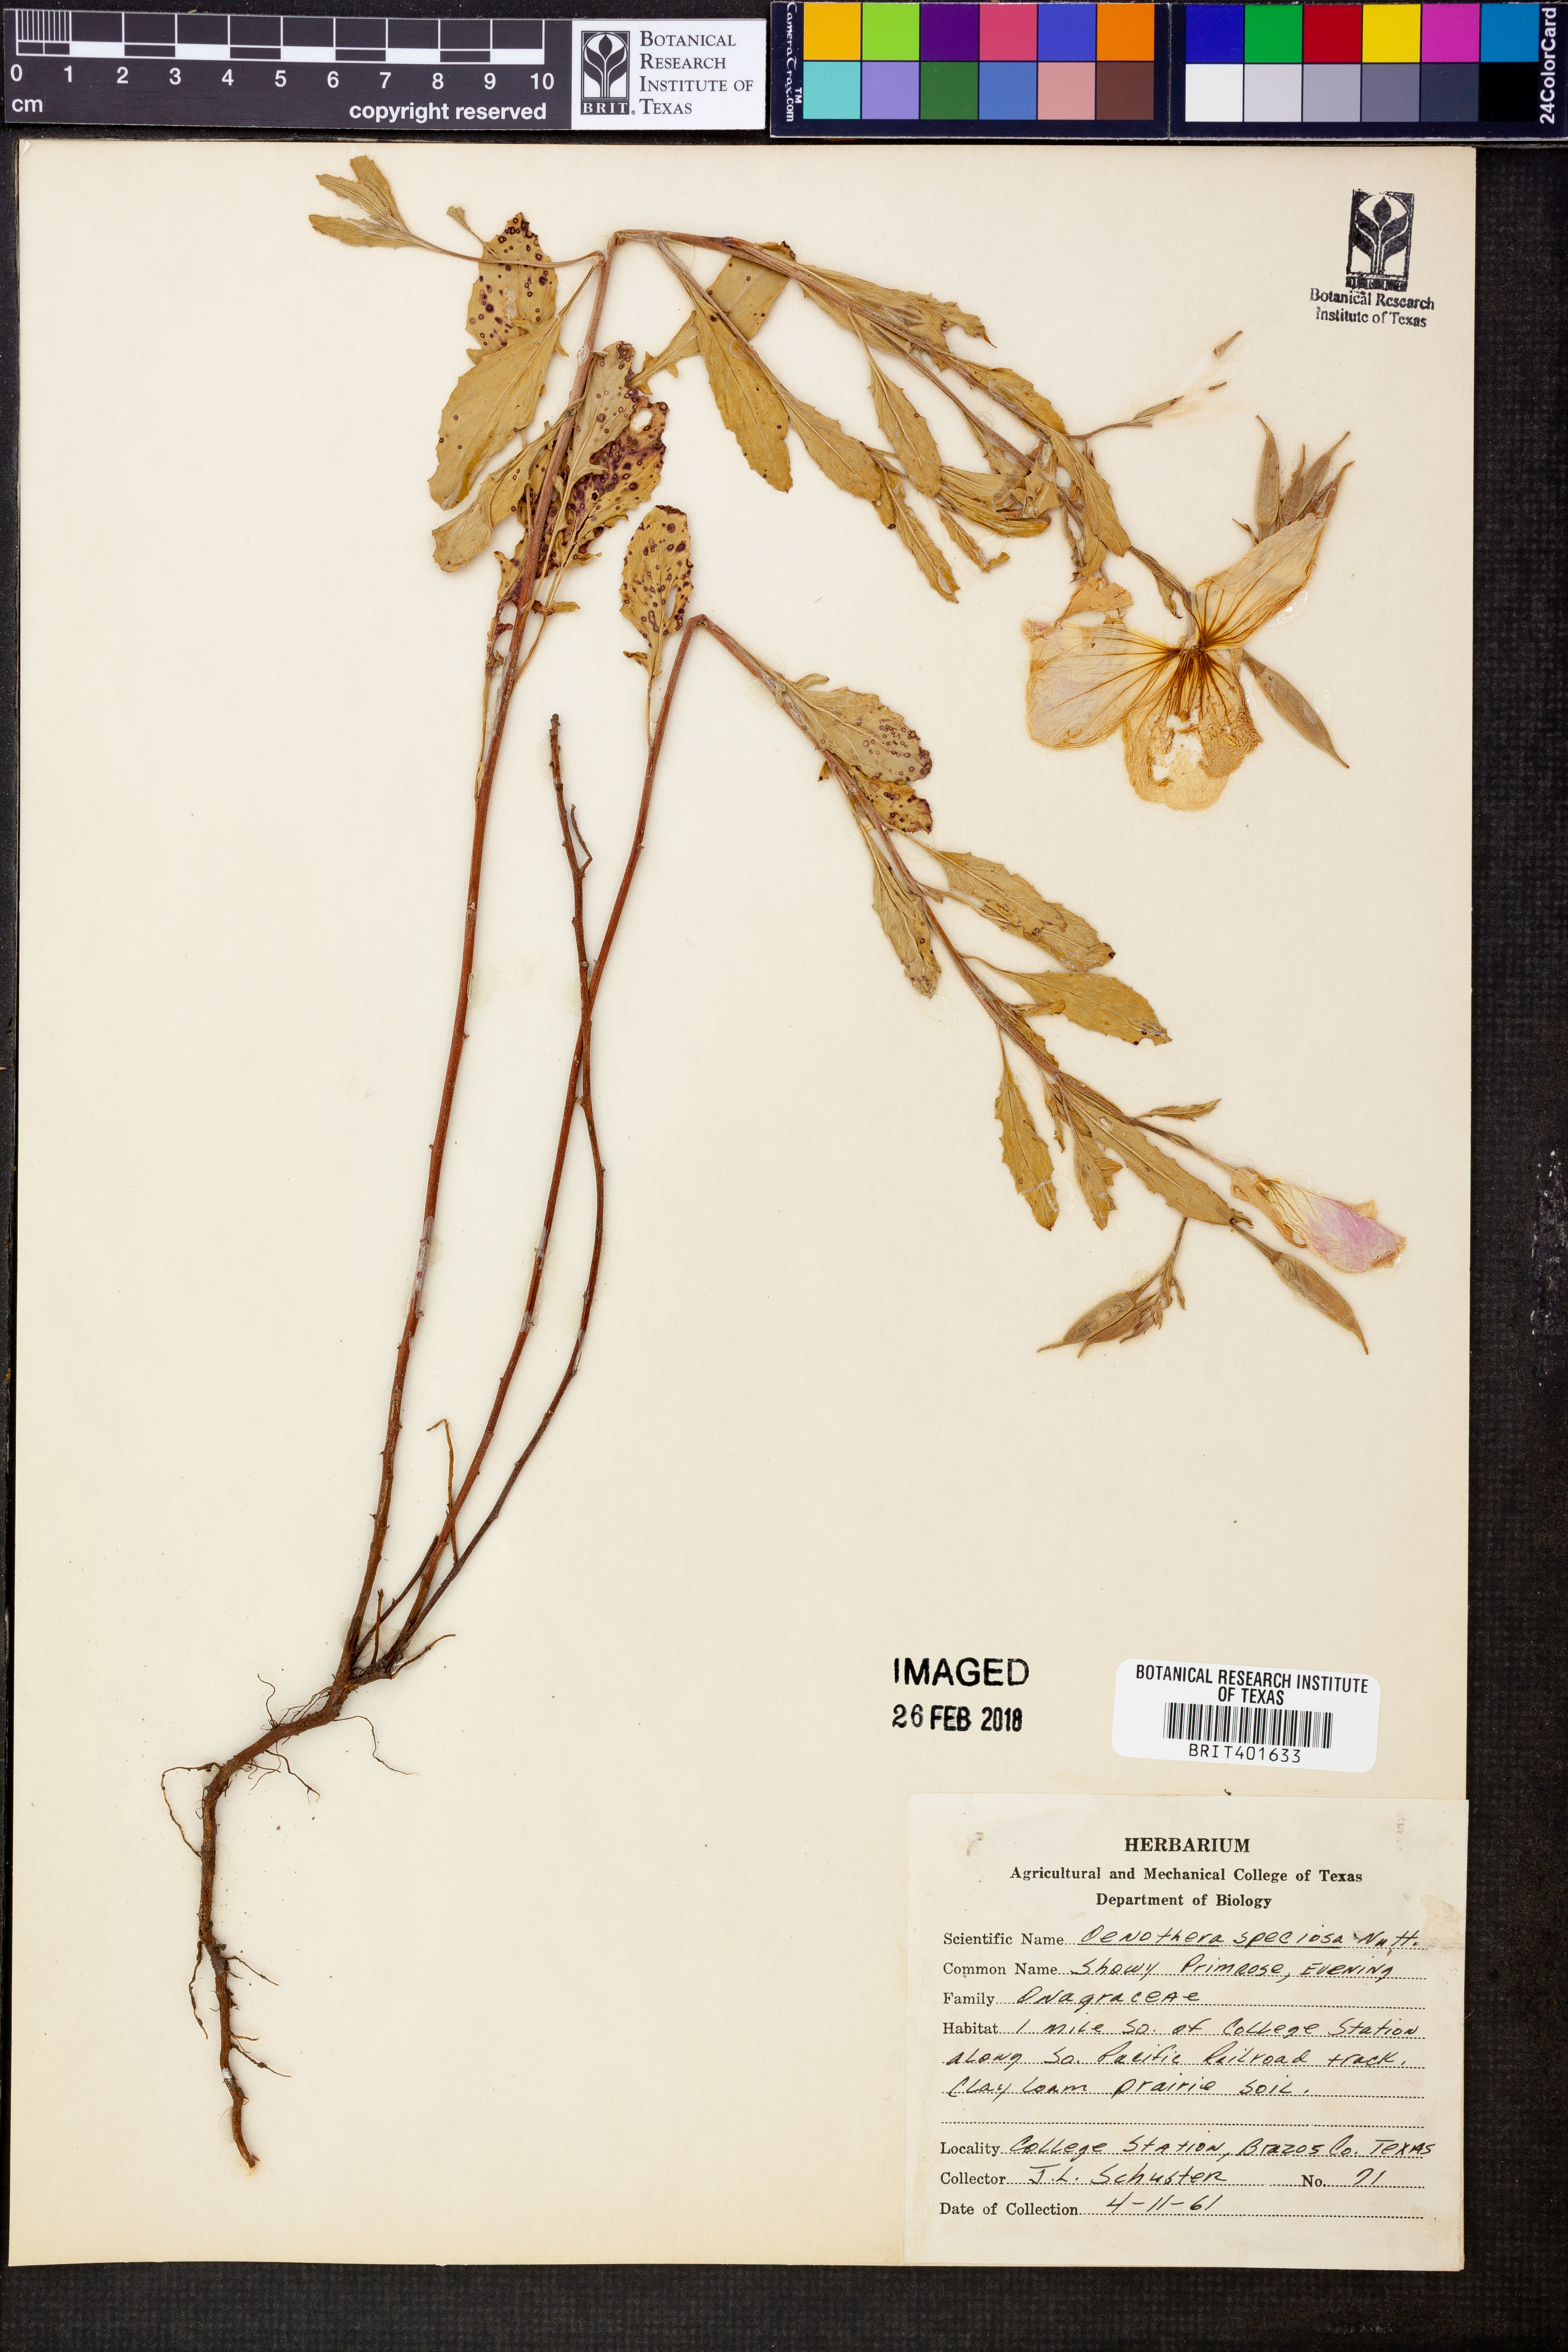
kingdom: Plantae
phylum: Tracheophyta
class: Magnoliopsida
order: Myrtales
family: Onagraceae
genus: Oenothera
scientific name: Oenothera speciosa
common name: White evening-primrose
